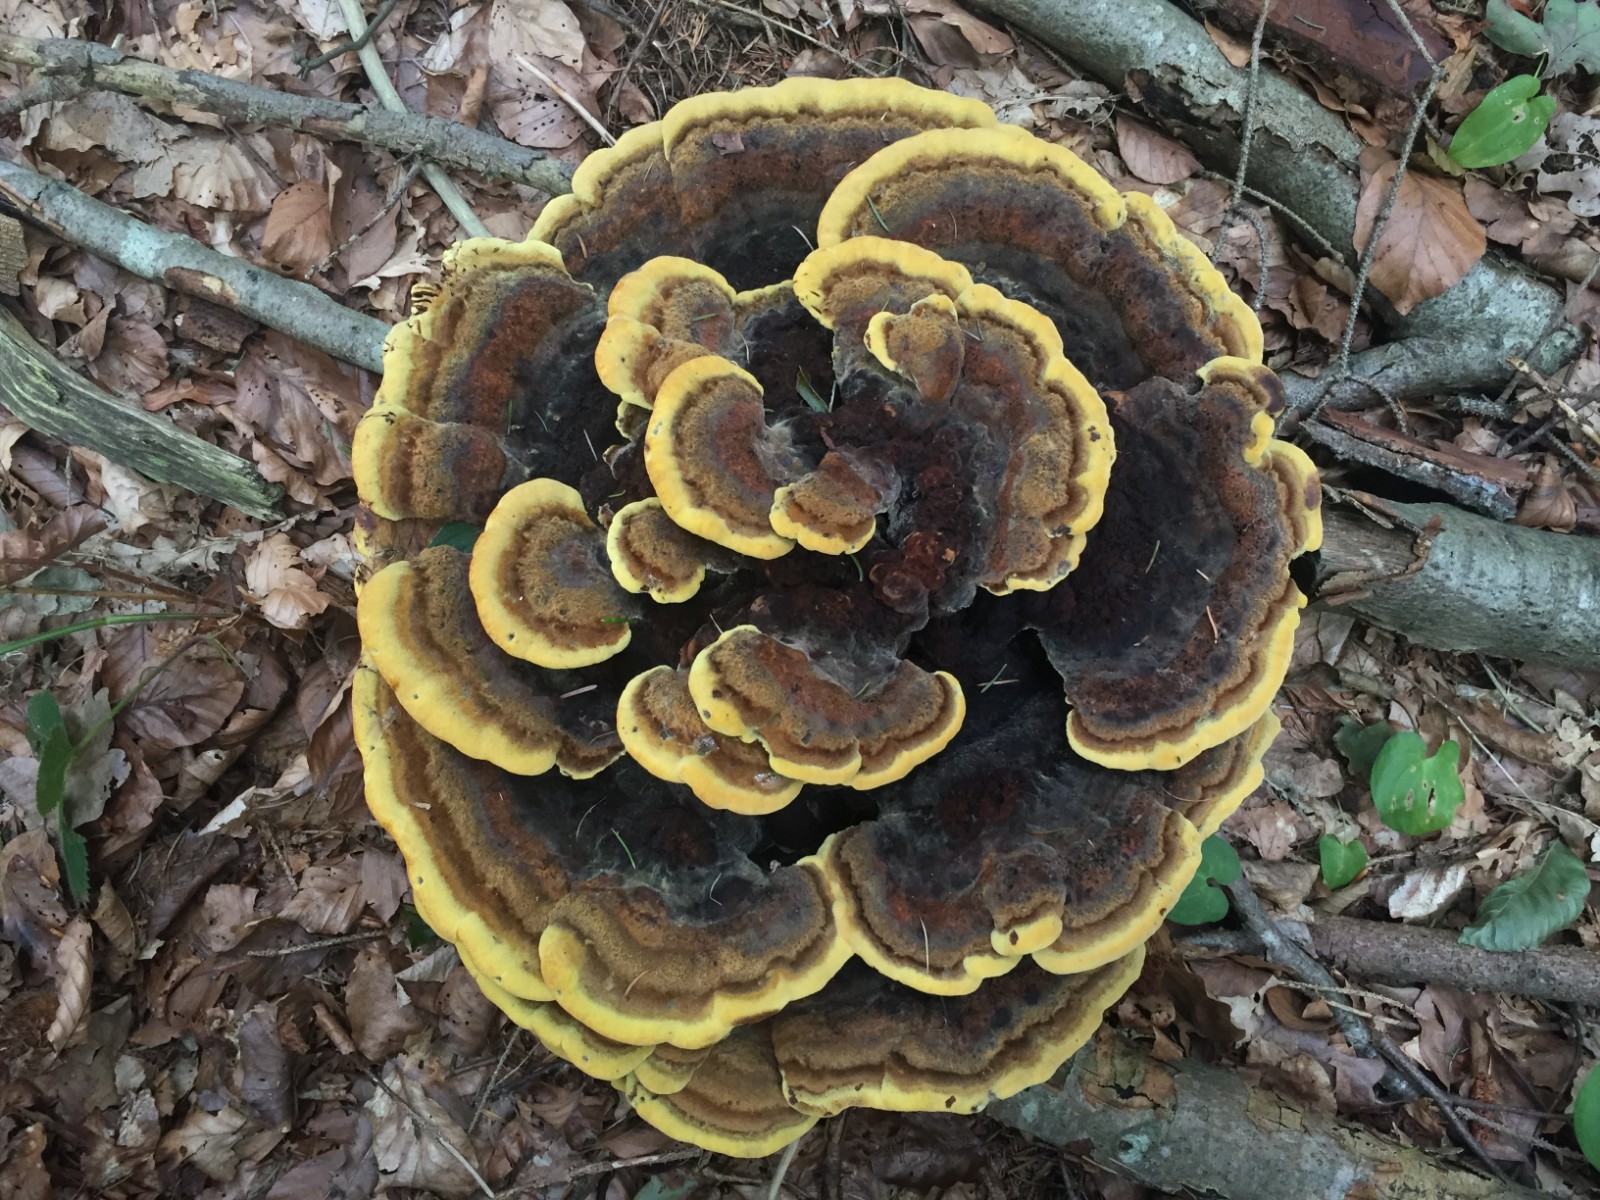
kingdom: Fungi
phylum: Basidiomycota
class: Agaricomycetes
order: Polyporales
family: Laetiporaceae
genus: Phaeolus
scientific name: Phaeolus schweinitzii
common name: brunporesvamp
